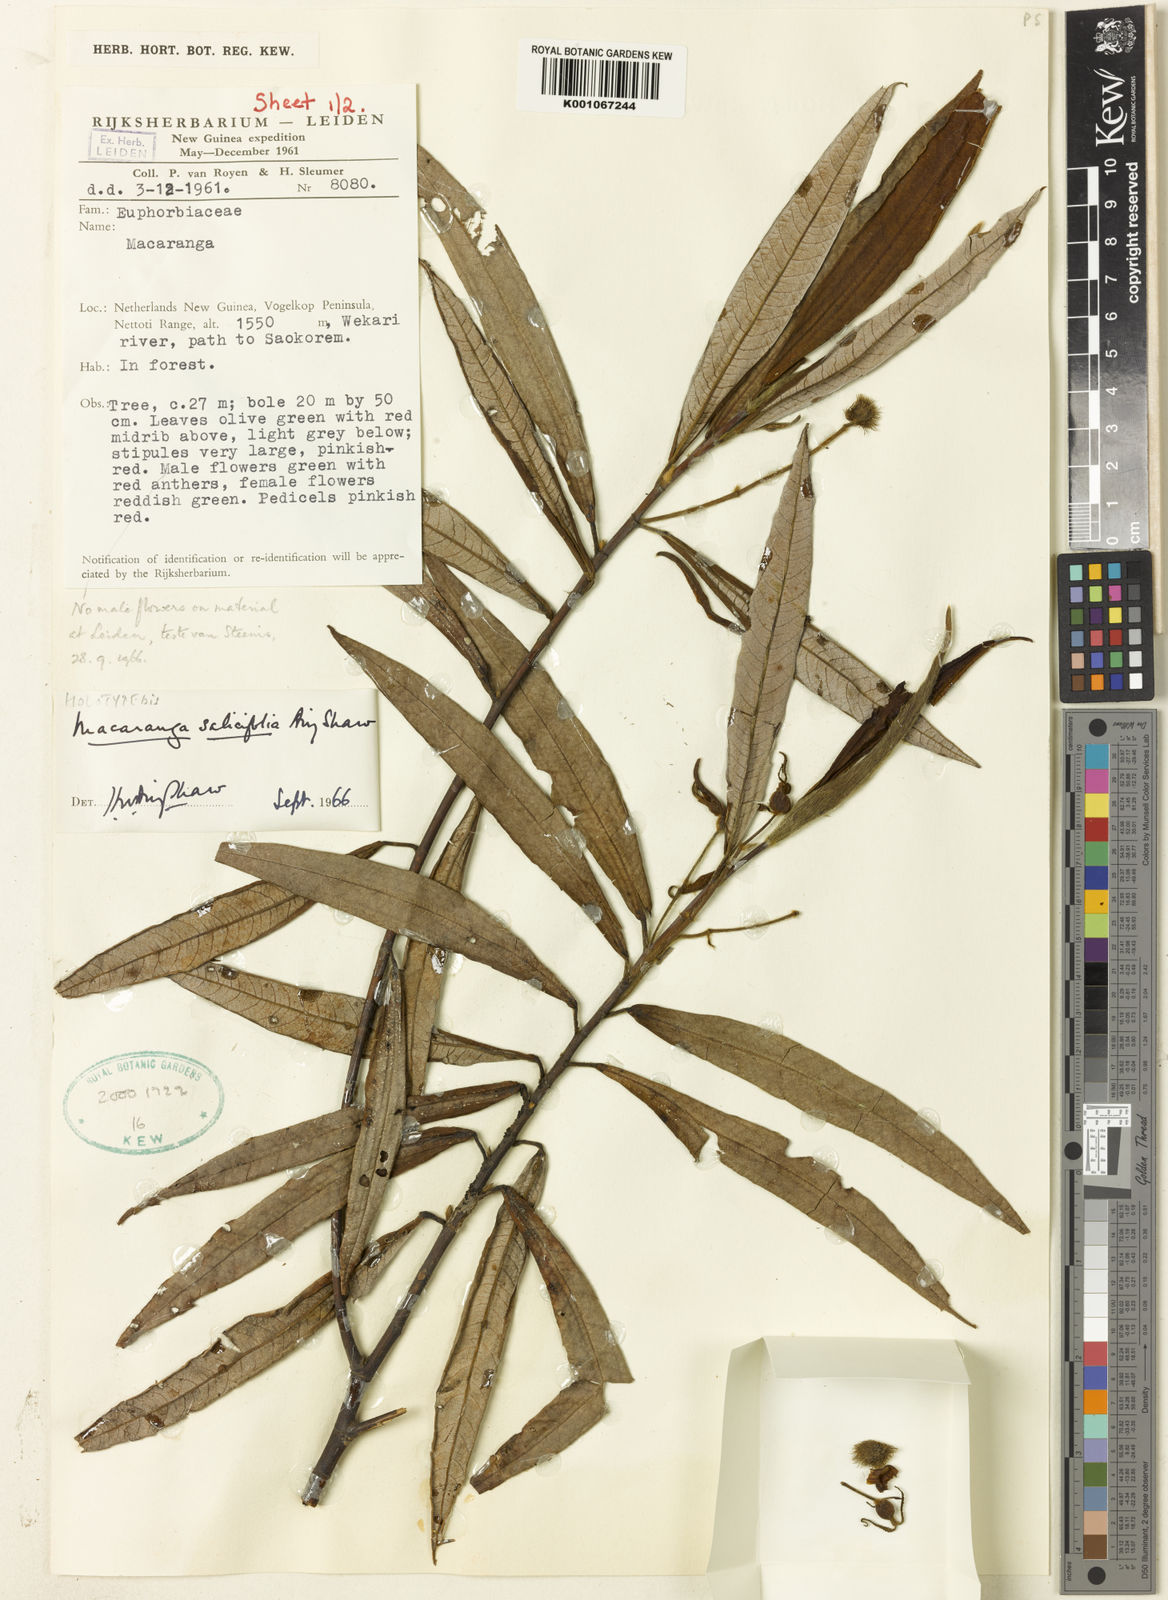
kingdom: Plantae
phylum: Tracheophyta
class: Magnoliopsida
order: Malpighiales
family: Euphorbiaceae
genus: Macaranga
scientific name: Macaranga salicifolia
